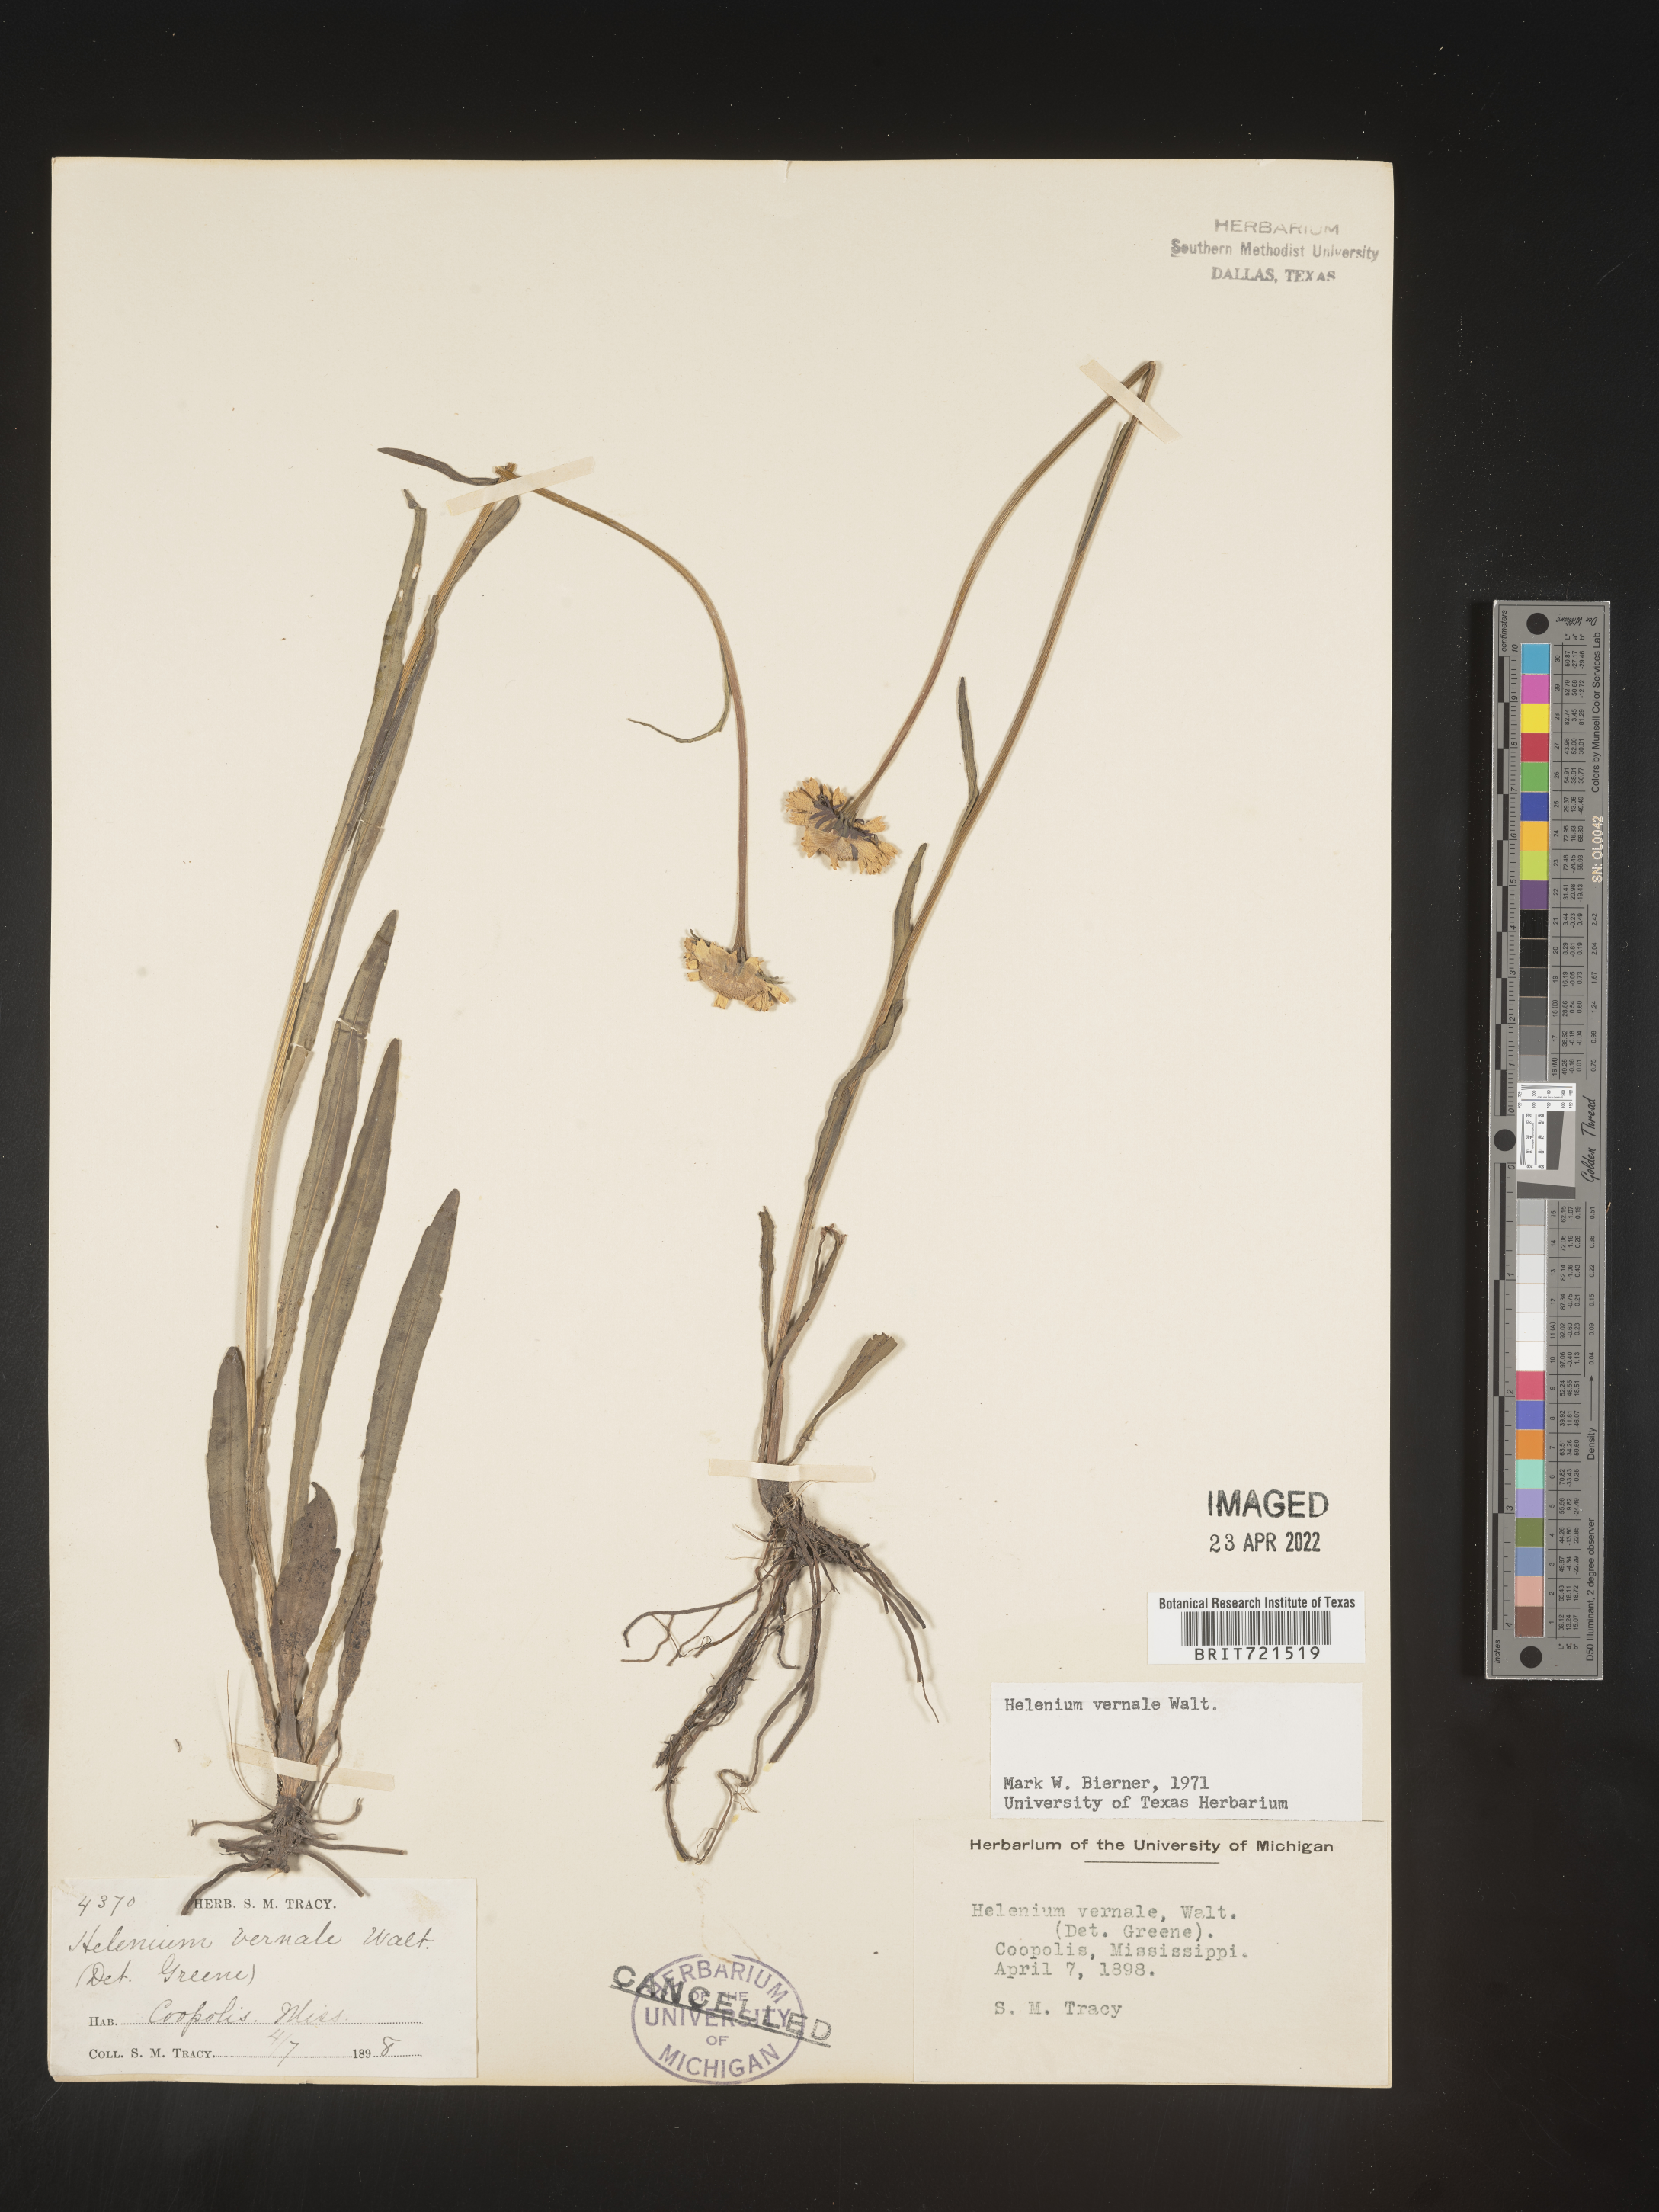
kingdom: Plantae
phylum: Tracheophyta
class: Magnoliopsida
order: Asterales
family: Asteraceae
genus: Helenium
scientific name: Helenium vernale
